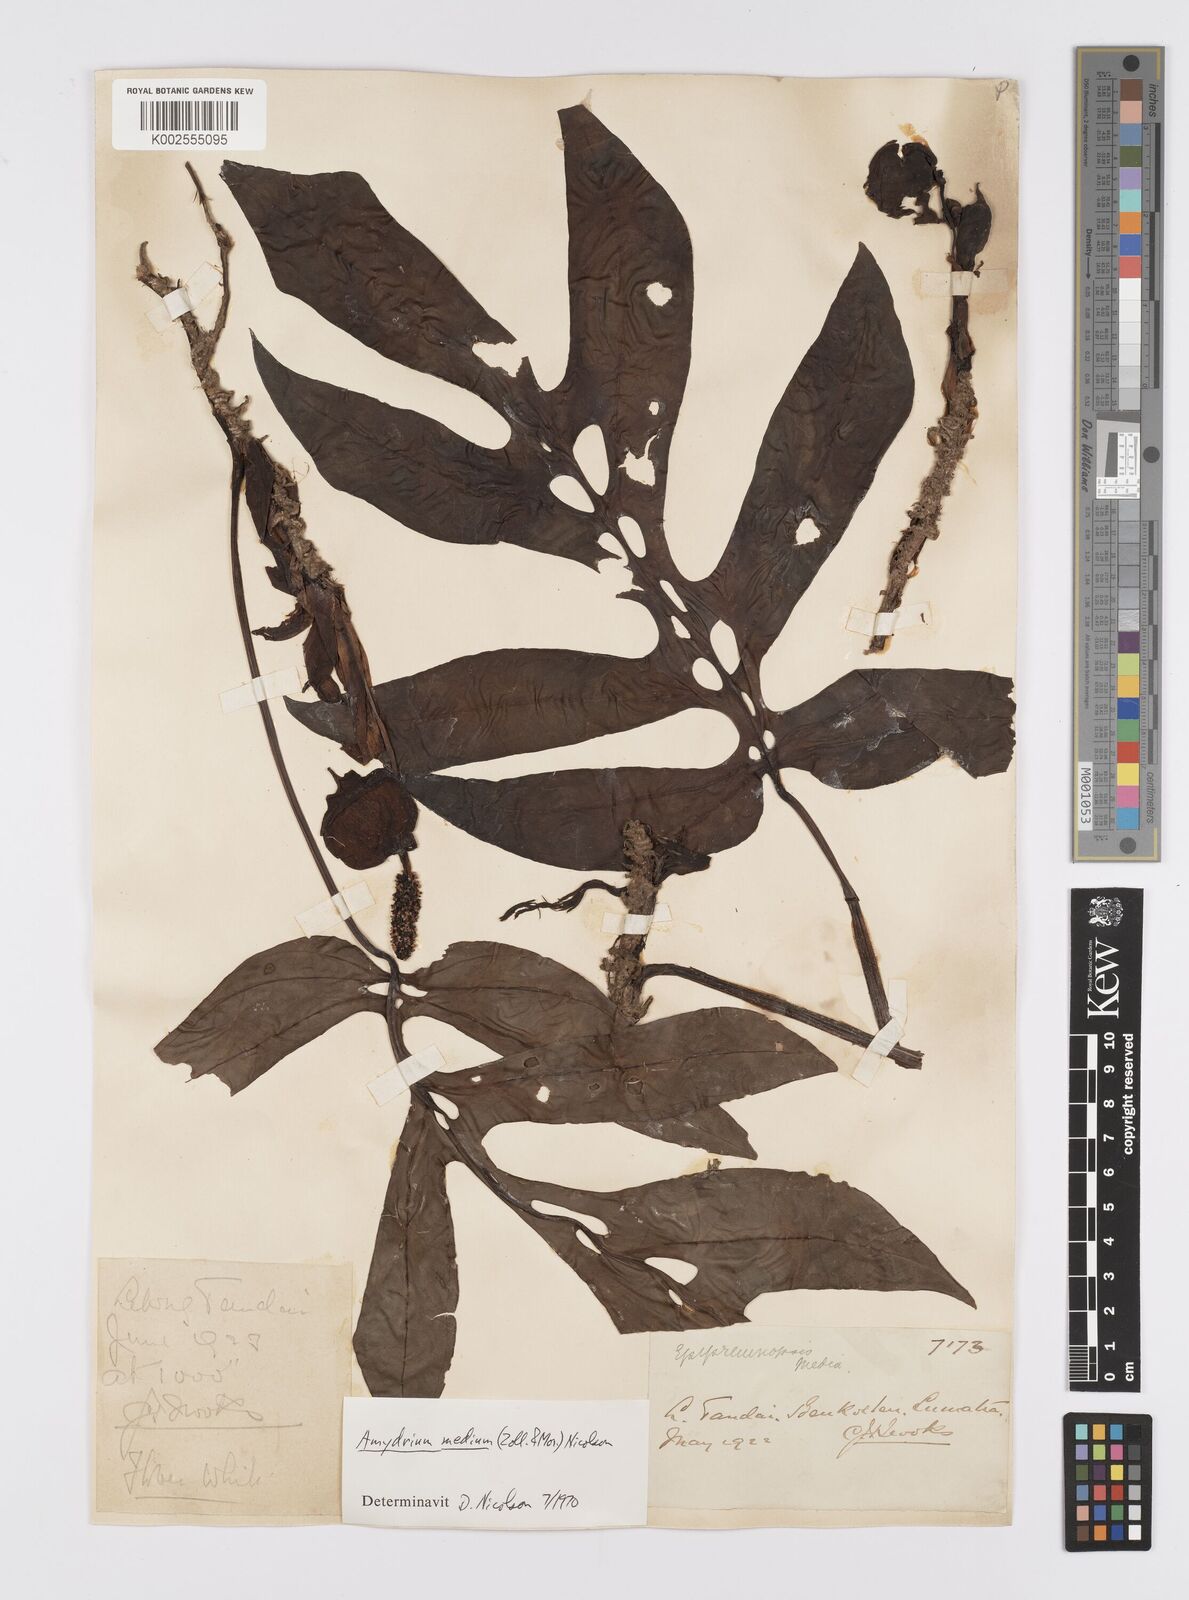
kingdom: Plantae
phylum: Tracheophyta
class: Liliopsida
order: Alismatales
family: Araceae
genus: Amydrium
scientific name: Amydrium medium
